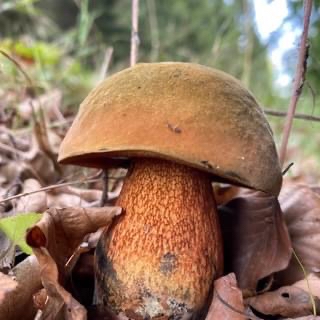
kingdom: Fungi
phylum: Basidiomycota
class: Agaricomycetes
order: Boletales
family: Boletaceae
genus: Suillellus
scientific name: Suillellus luridus
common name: netstokket indigorørhat
